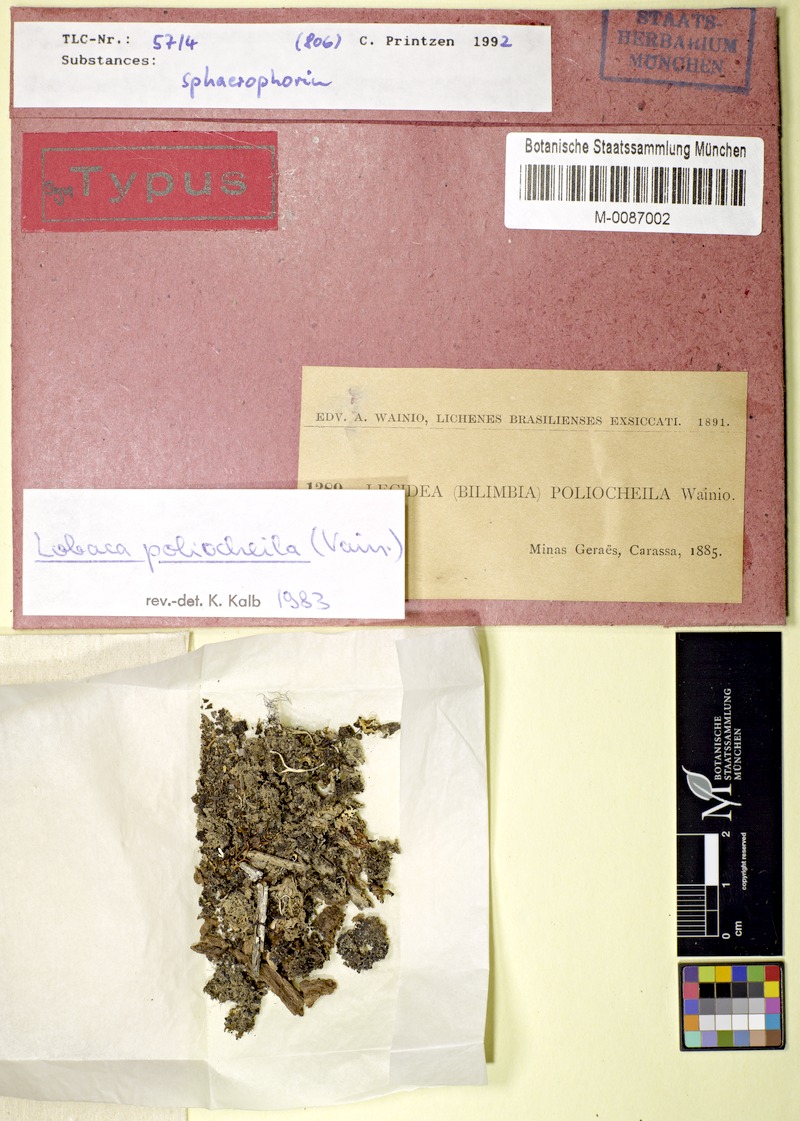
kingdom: Fungi
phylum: Ascomycota
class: Lecanoromycetes
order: Lecanorales
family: Byssolomataceae
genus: Micarea
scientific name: Micarea poliocheila
